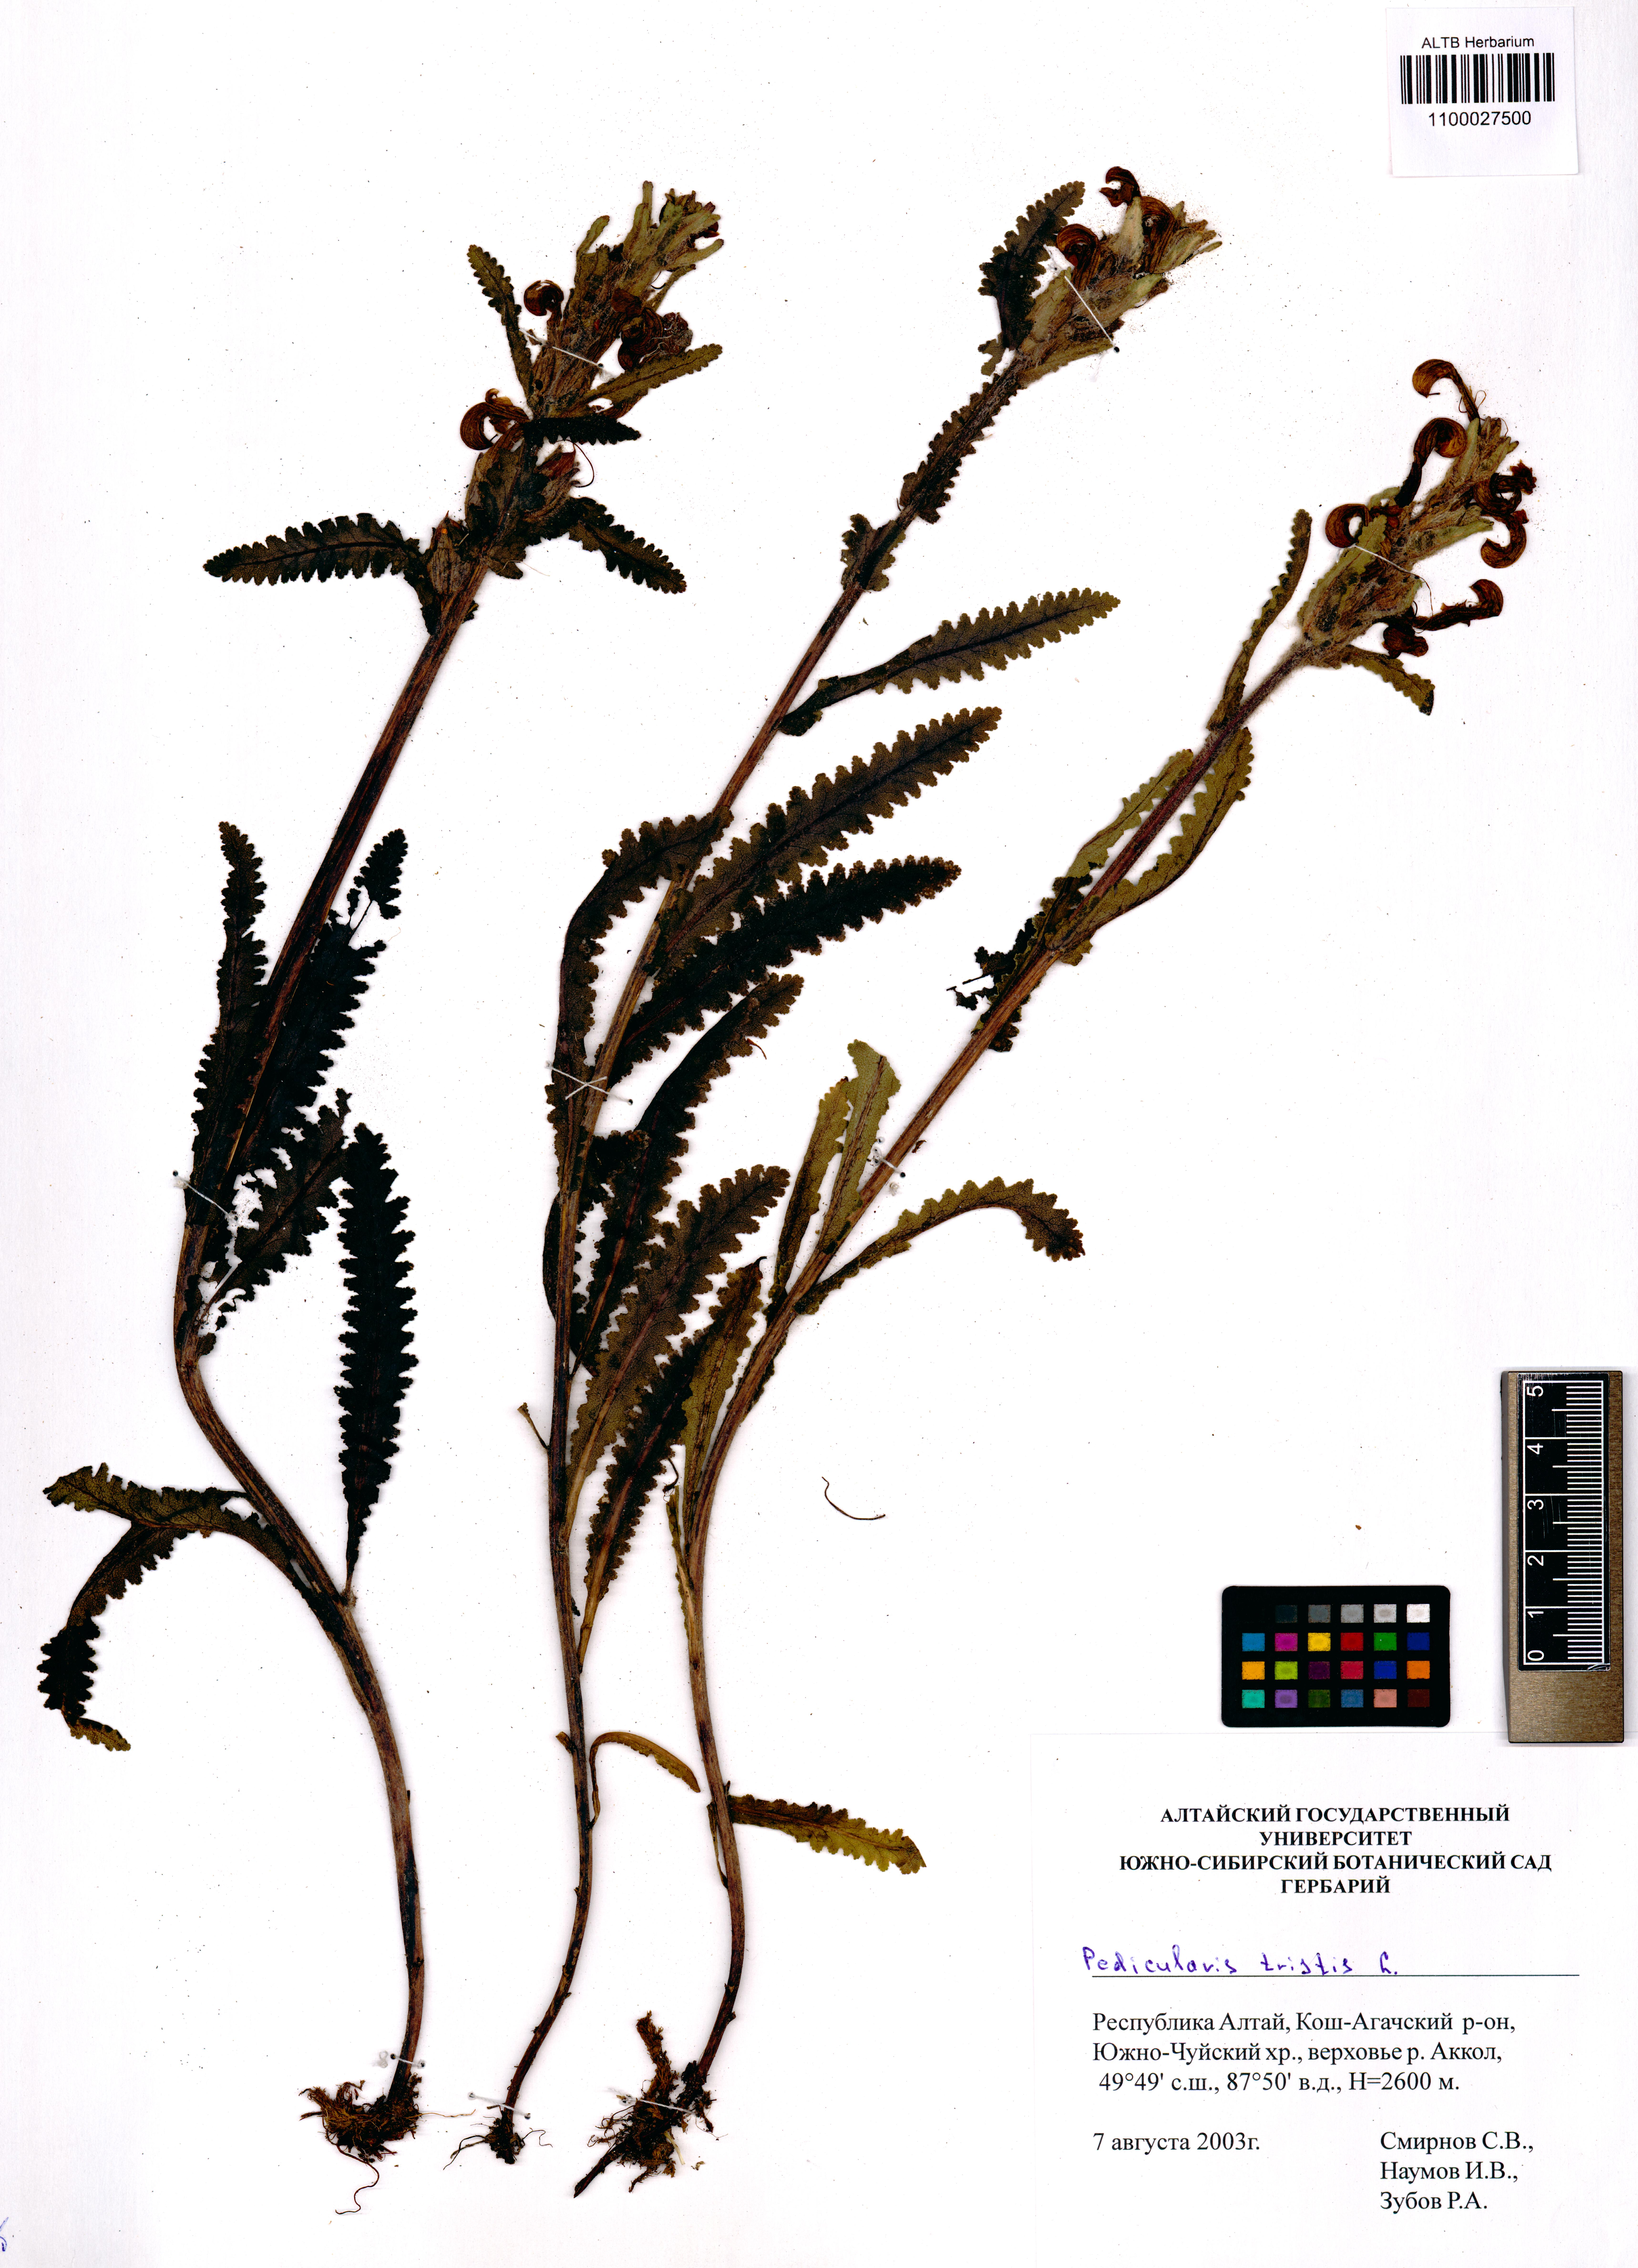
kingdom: Plantae
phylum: Tracheophyta
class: Magnoliopsida
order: Lamiales
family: Orobanchaceae
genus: Pedicularis
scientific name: Pedicularis tristis
